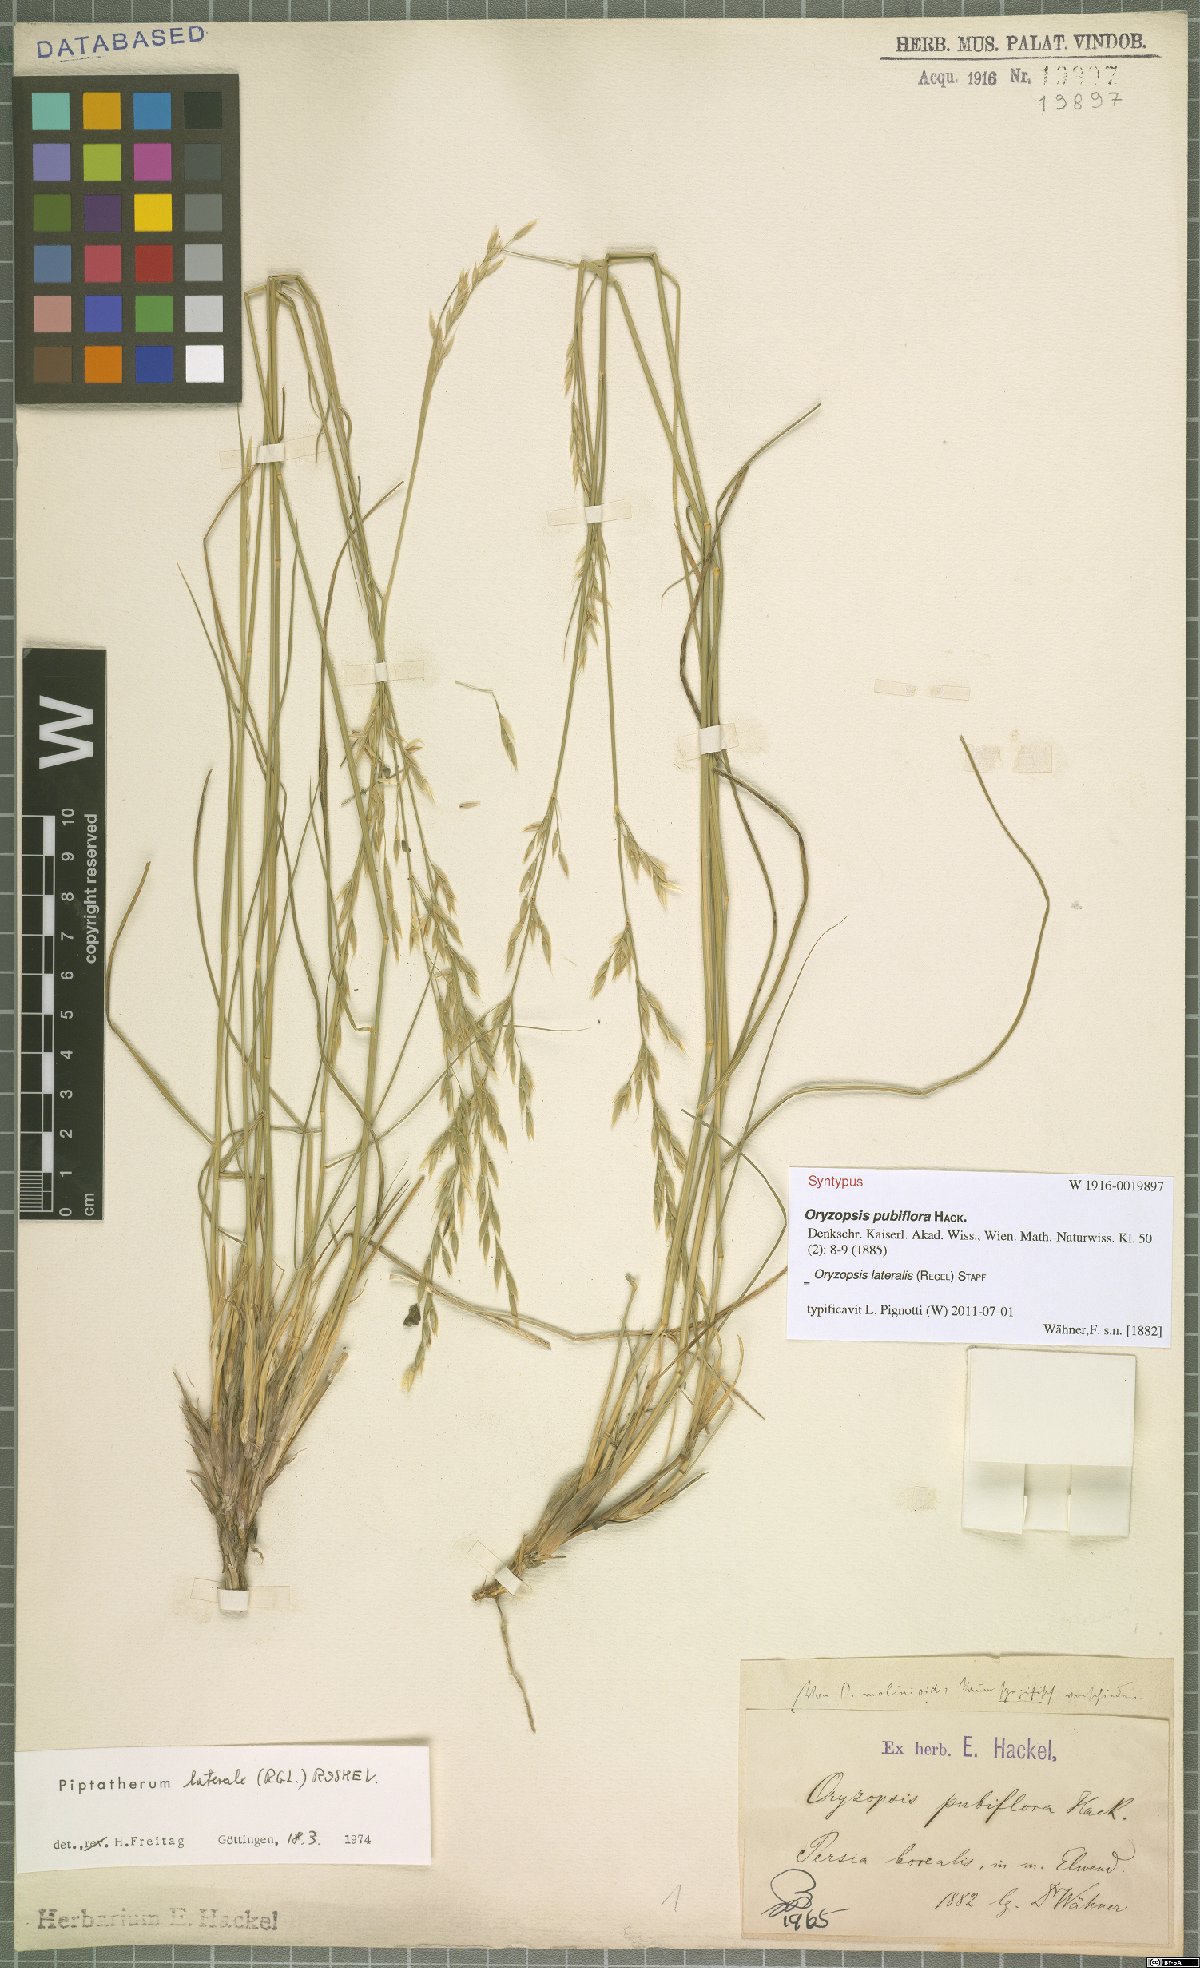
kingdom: Plantae
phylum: Tracheophyta
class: Liliopsida
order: Poales
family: Poaceae
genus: Piptatherum
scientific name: Piptatherum laterale
